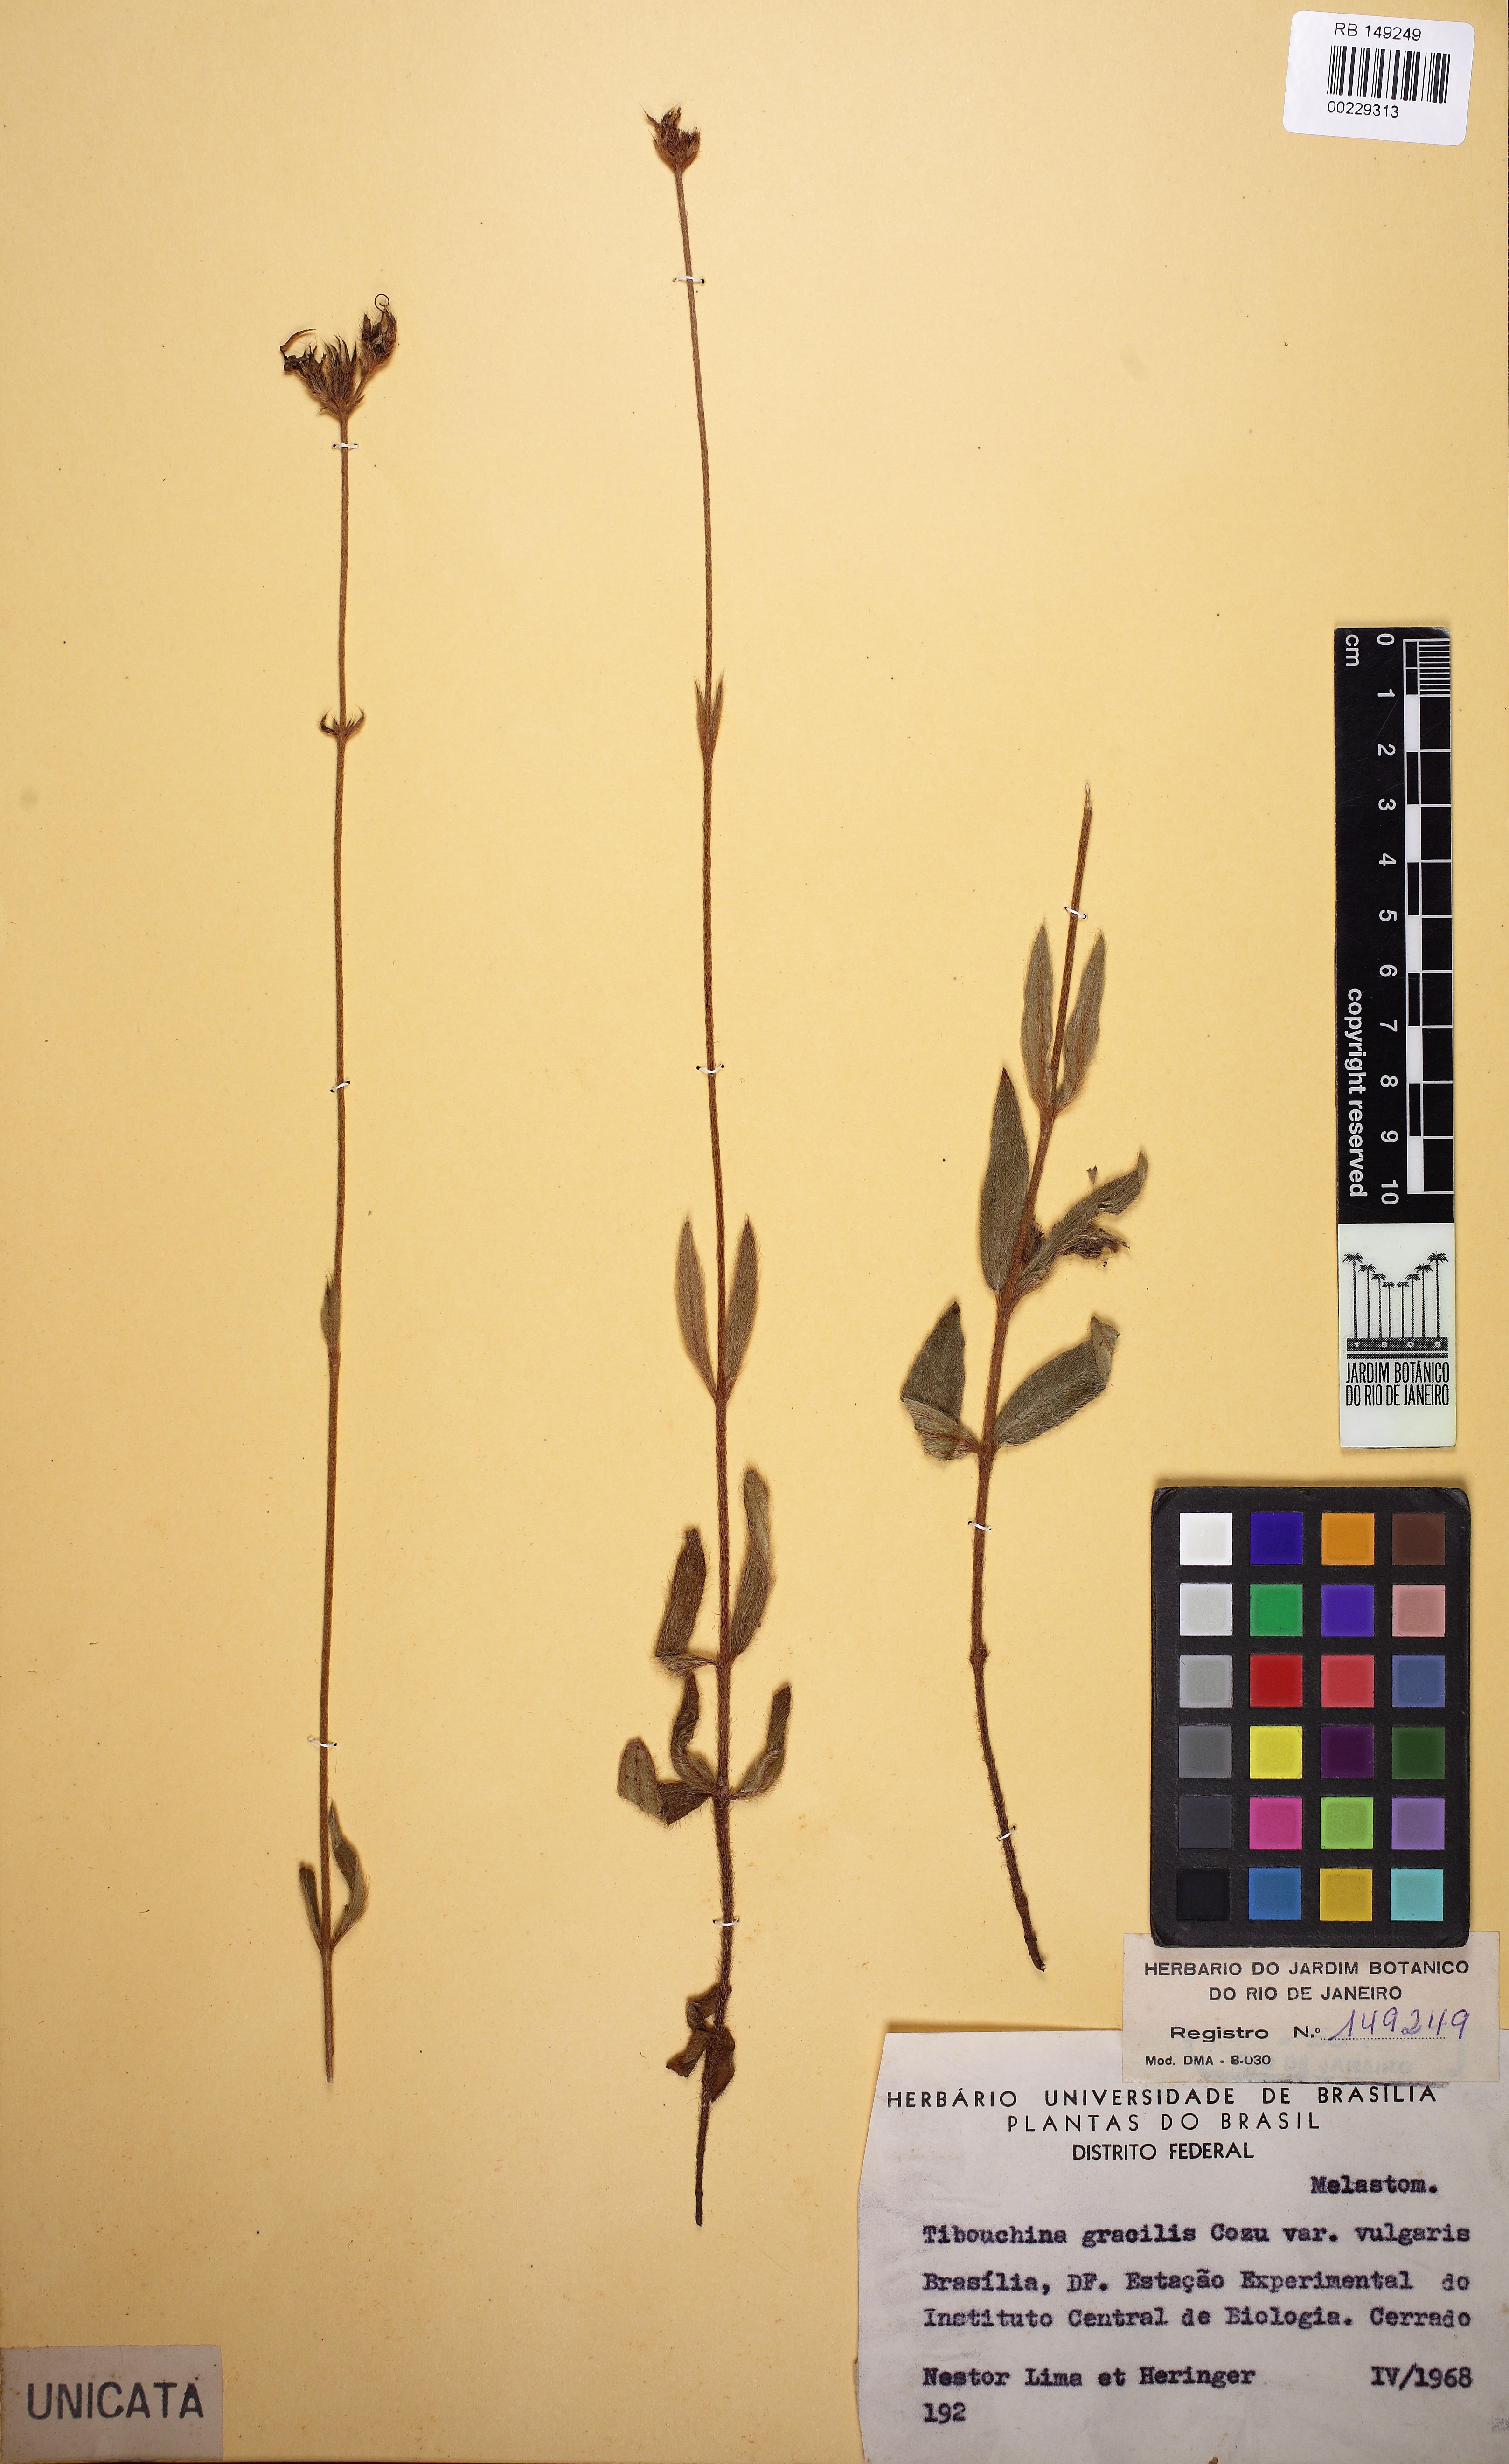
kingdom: Plantae
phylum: Tracheophyta
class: Magnoliopsida
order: Myrtales
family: Melastomataceae
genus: Chaetogastra
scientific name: Chaetogastra gracilis
